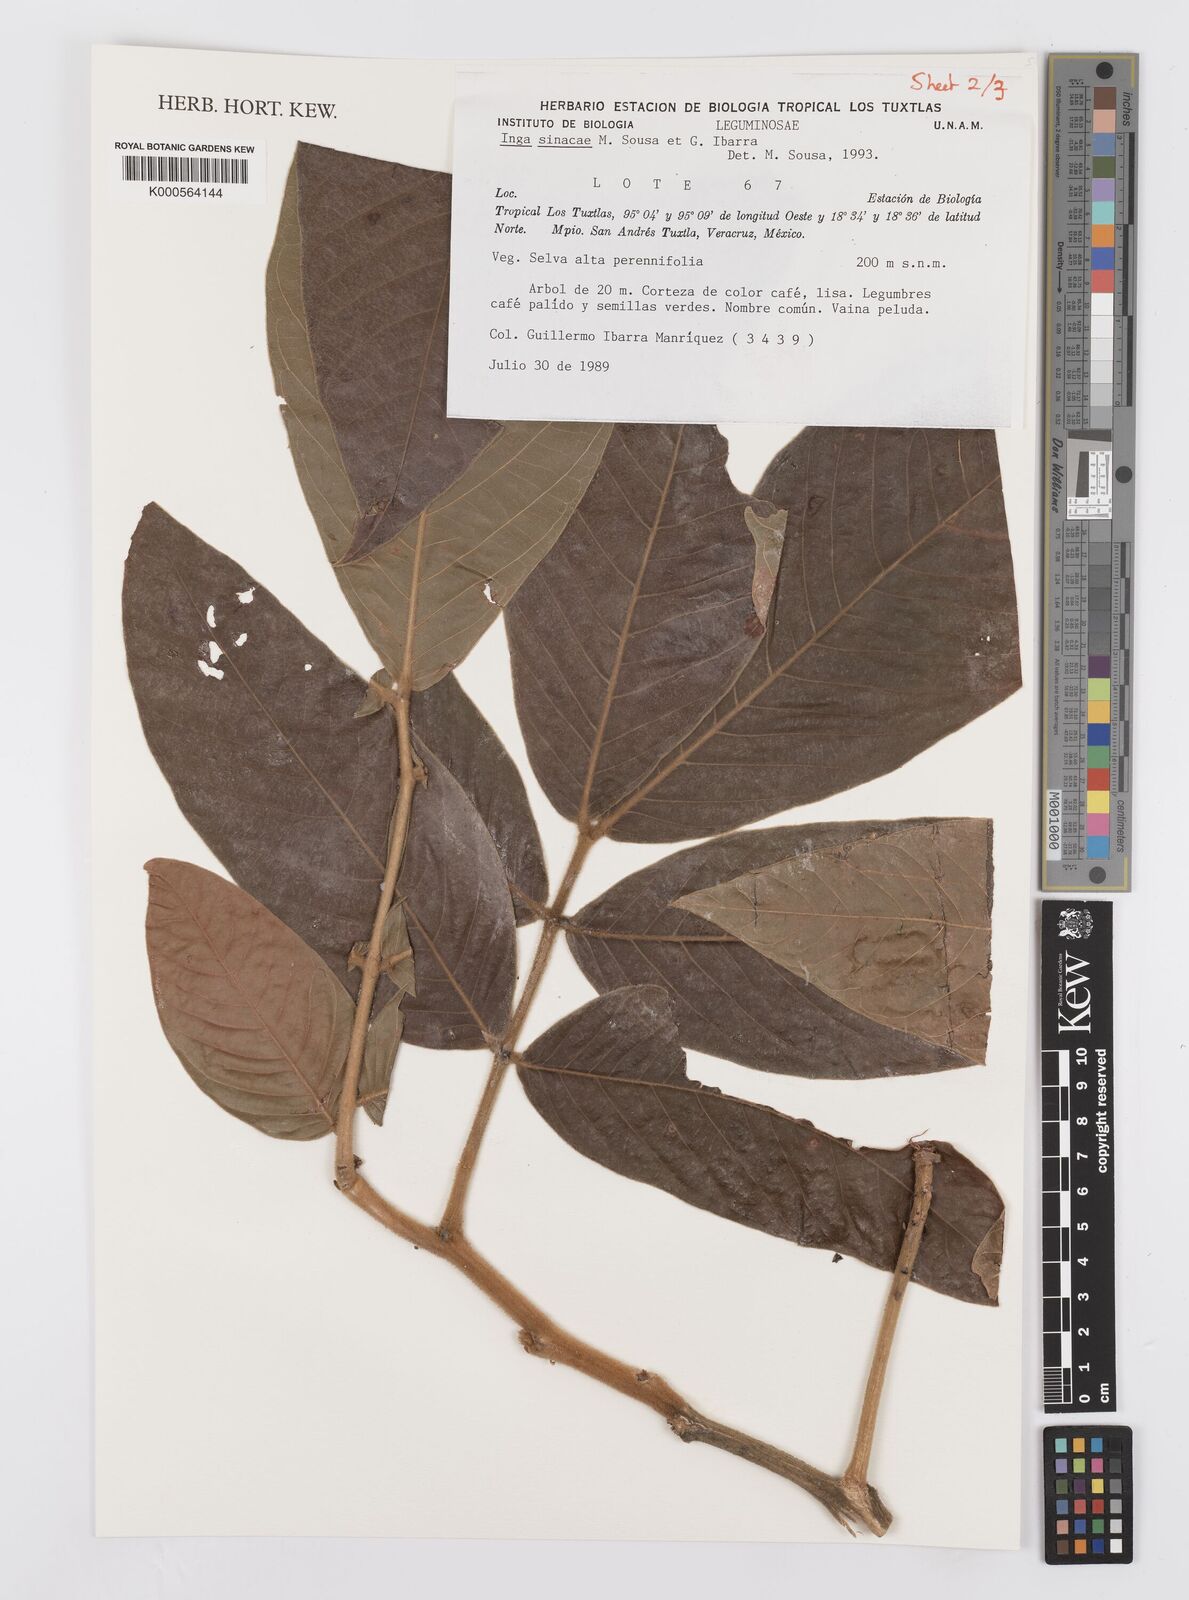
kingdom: Plantae
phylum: Tracheophyta
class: Magnoliopsida
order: Fabales
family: Fabaceae
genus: Inga
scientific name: Inga sinacae
